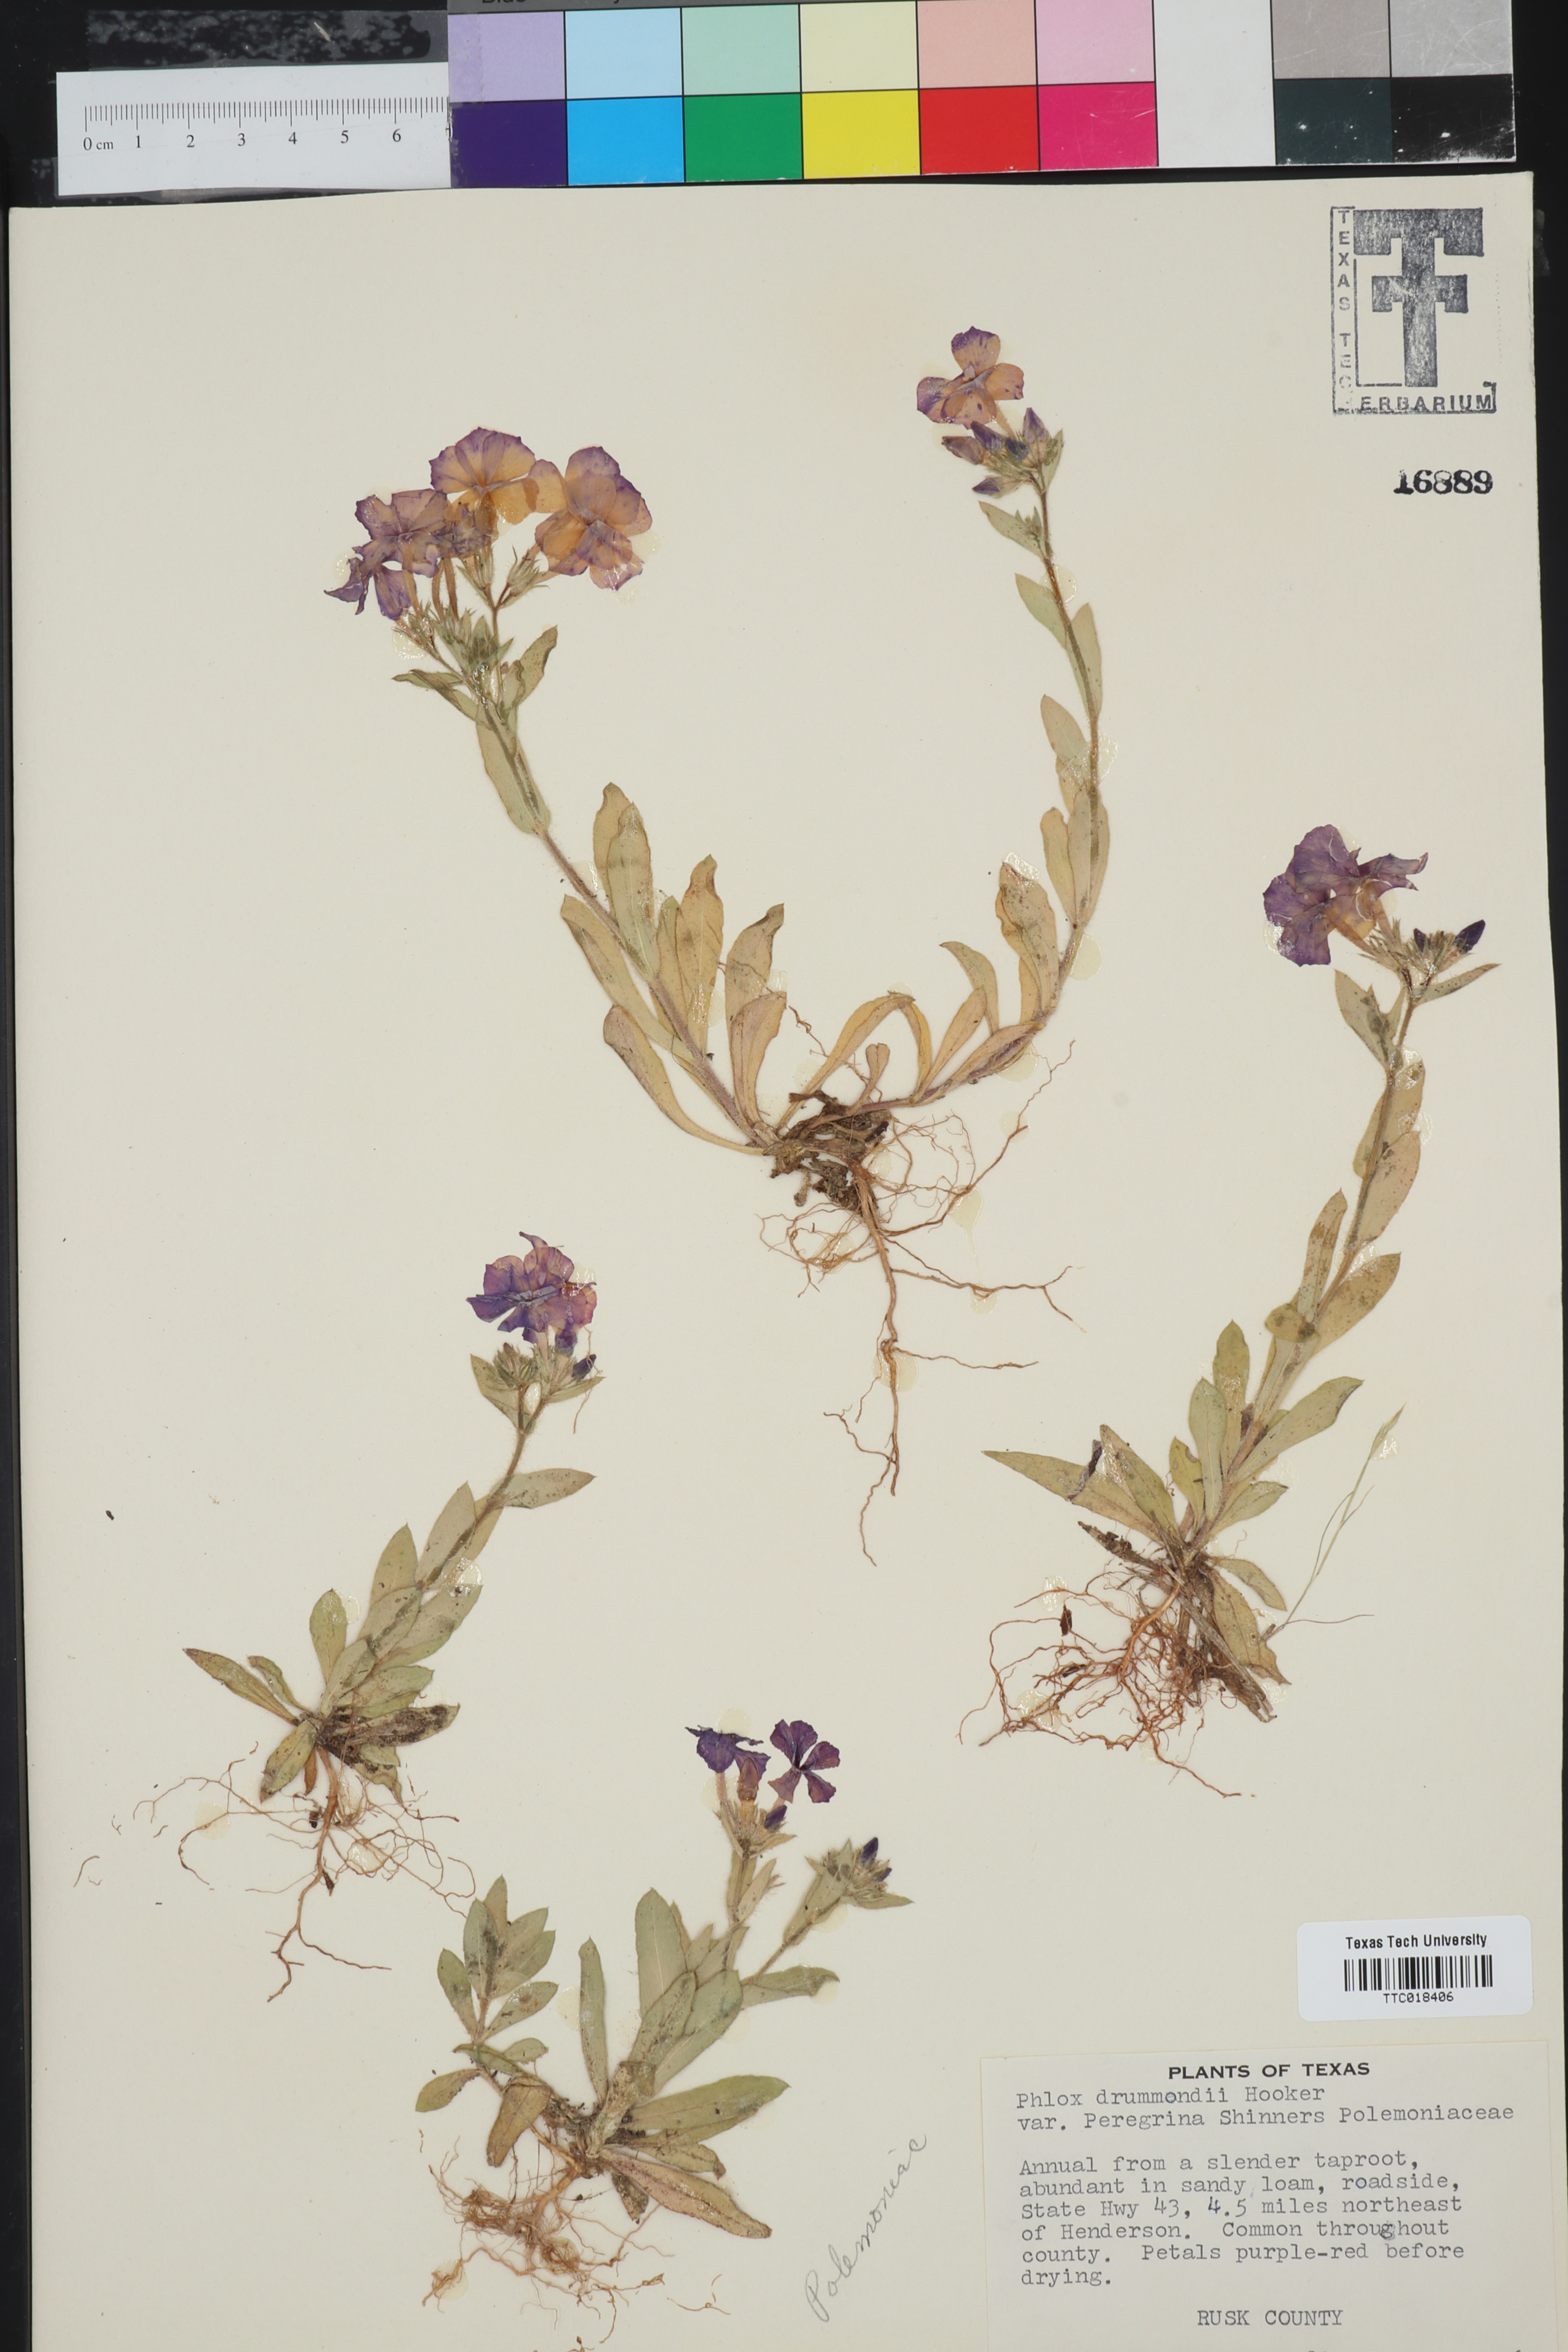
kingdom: Plantae
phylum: Tracheophyta
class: Magnoliopsida
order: Ericales
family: Polemoniaceae
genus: Phlox
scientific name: Phlox drummondii
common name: Drummond's phlox
